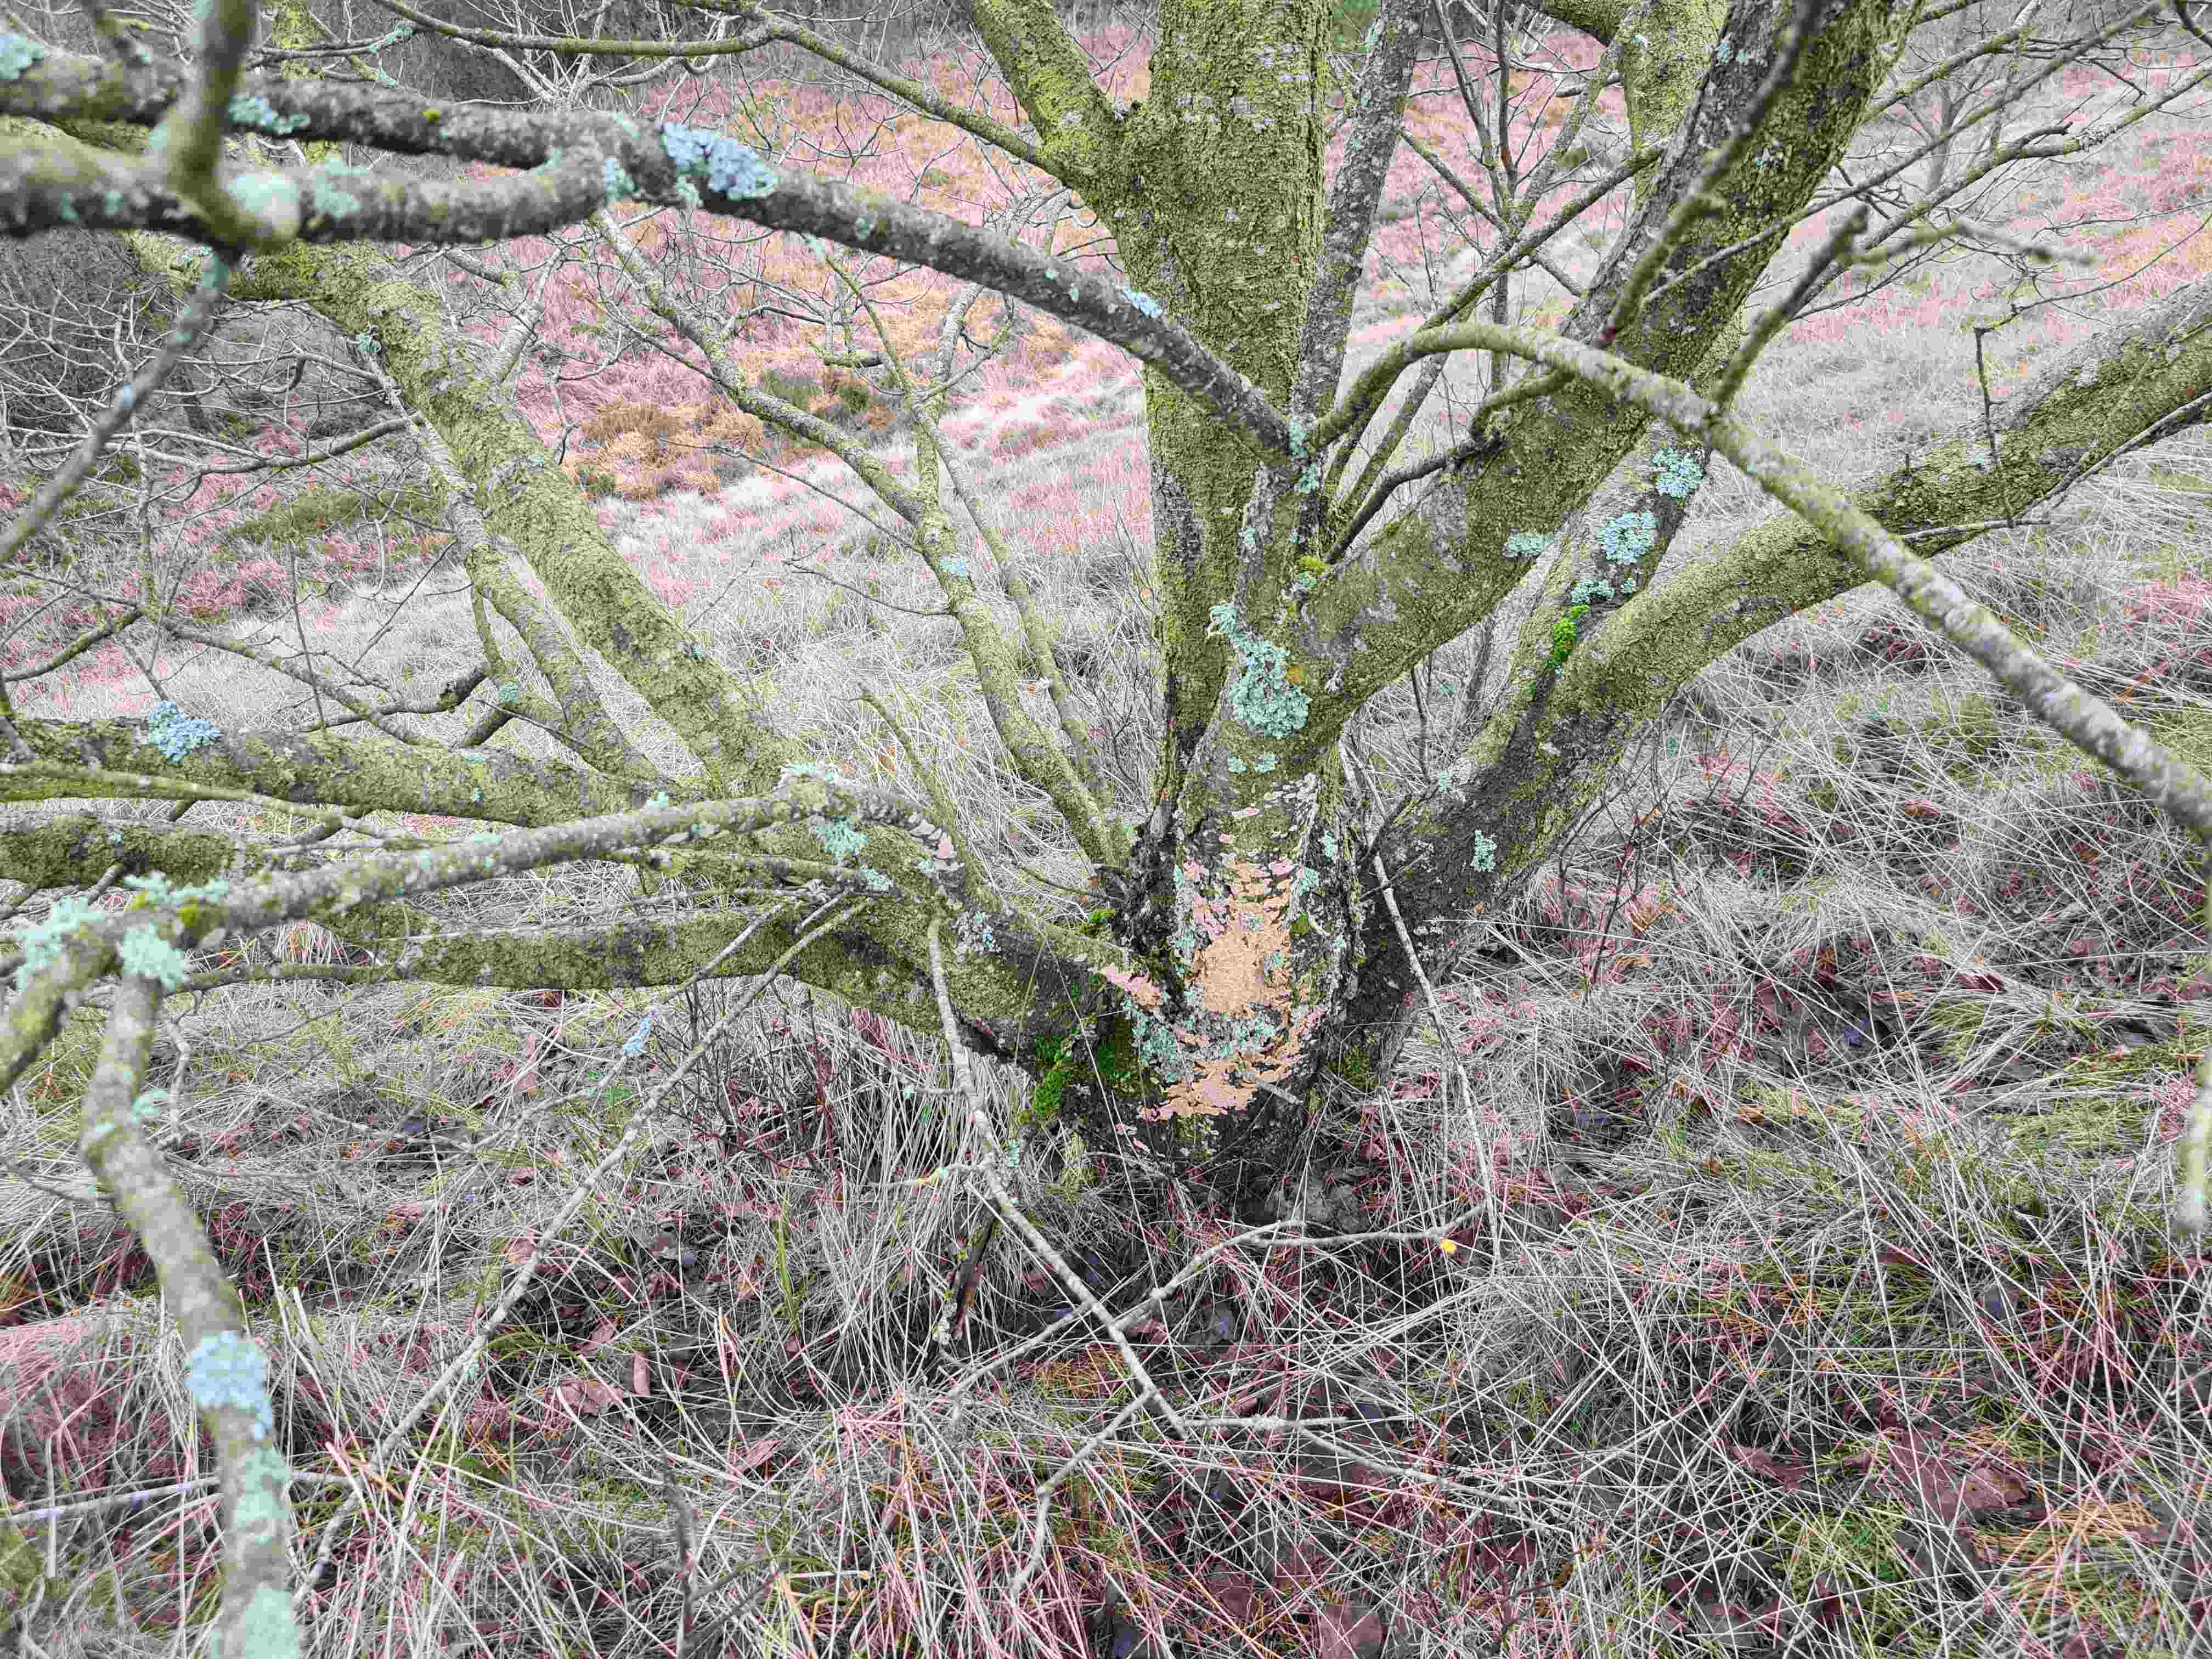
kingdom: Fungi
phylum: Basidiomycota
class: Agaricomycetes
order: Russulales
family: Stereaceae
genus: Stereum
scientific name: Stereum rugosum
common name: rynket lædersvamp
